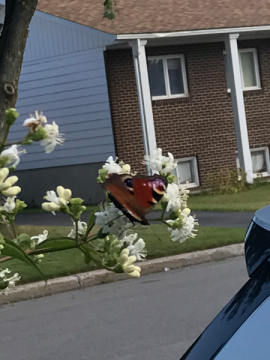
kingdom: Animalia
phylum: Arthropoda
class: Insecta
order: Lepidoptera
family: Nymphalidae
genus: Aglais
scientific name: Aglais io
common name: European Peacock
